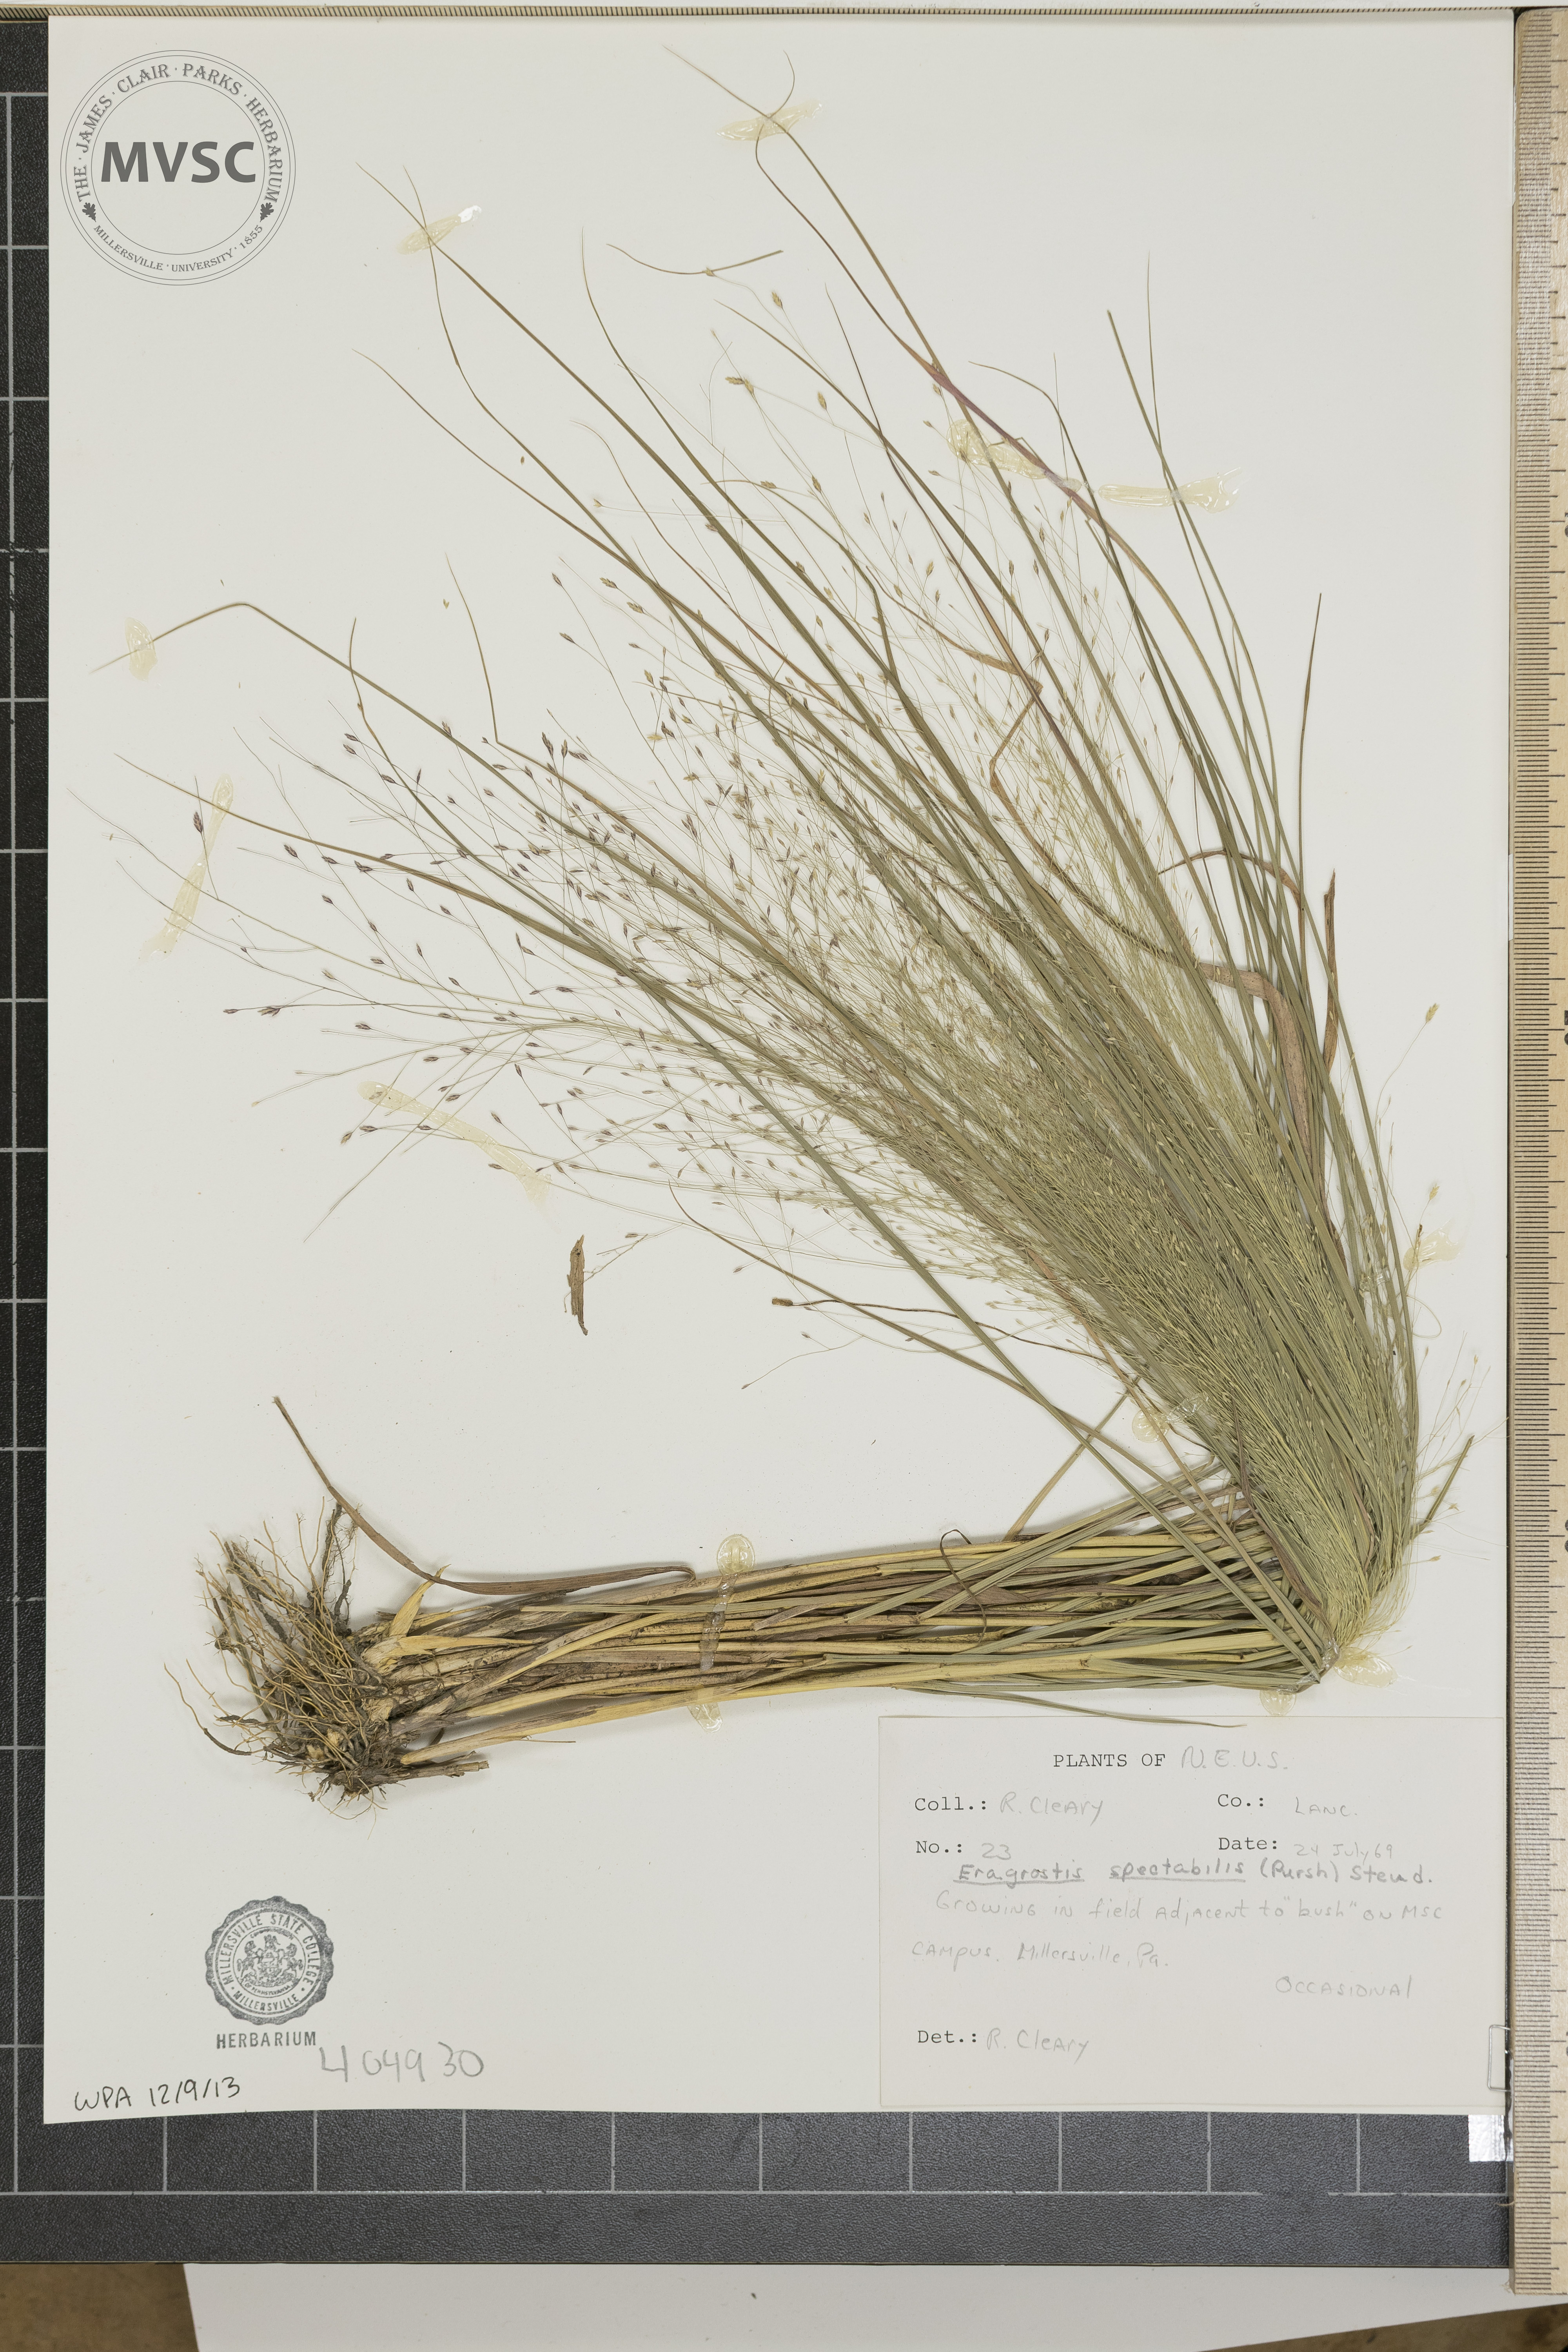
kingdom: Plantae
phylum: Tracheophyta
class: Liliopsida
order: Poales
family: Poaceae
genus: Eragrostis
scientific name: Eragrostis spectabilis
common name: Petticoat-climber
